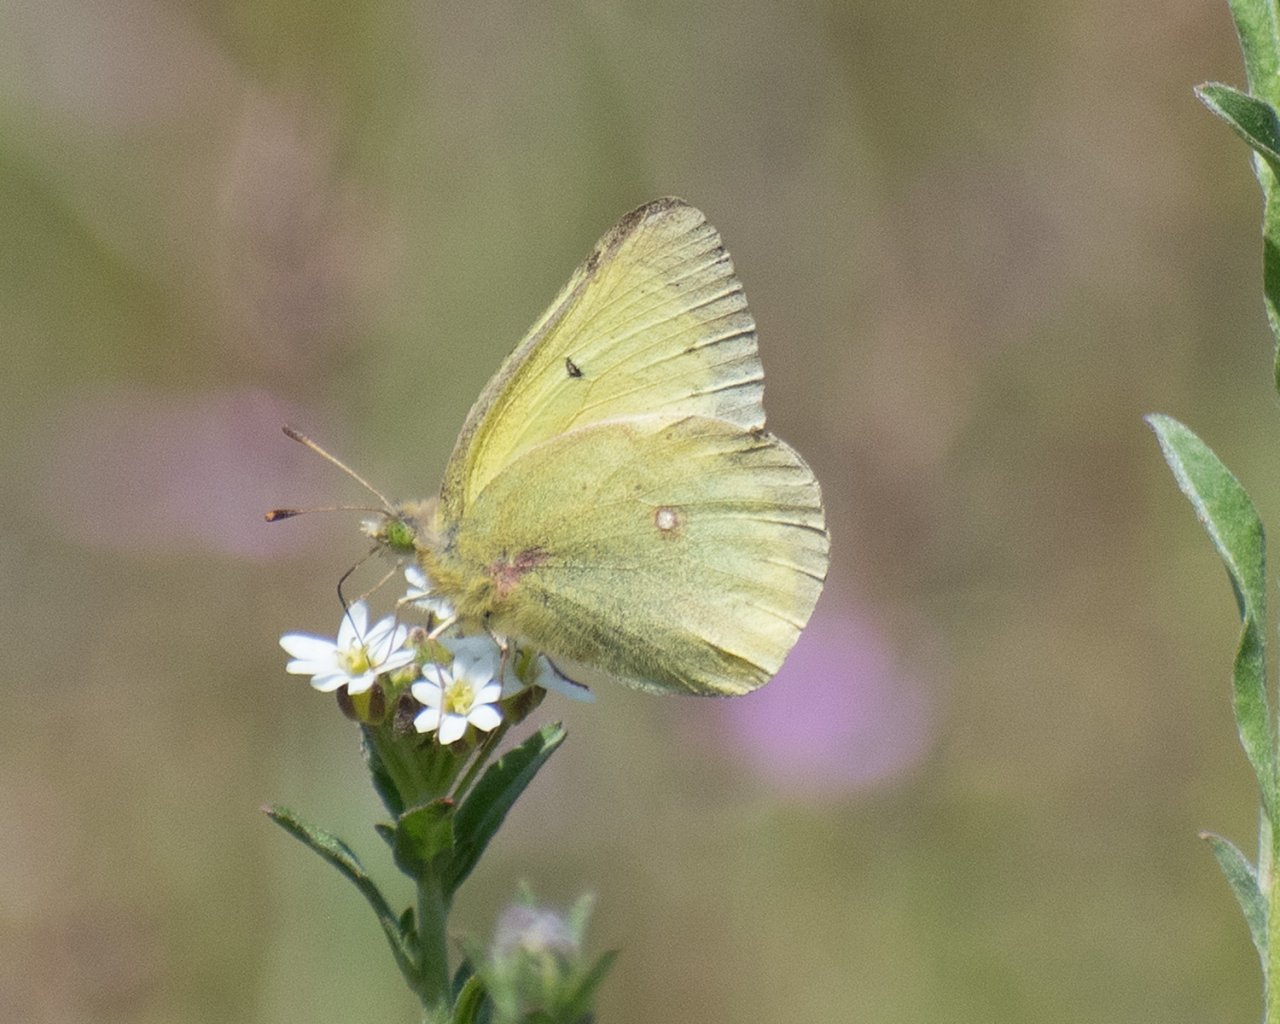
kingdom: Animalia
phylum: Arthropoda
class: Insecta
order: Lepidoptera
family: Pieridae
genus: Colias
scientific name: Colias philodice
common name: Clouded Sulphur
